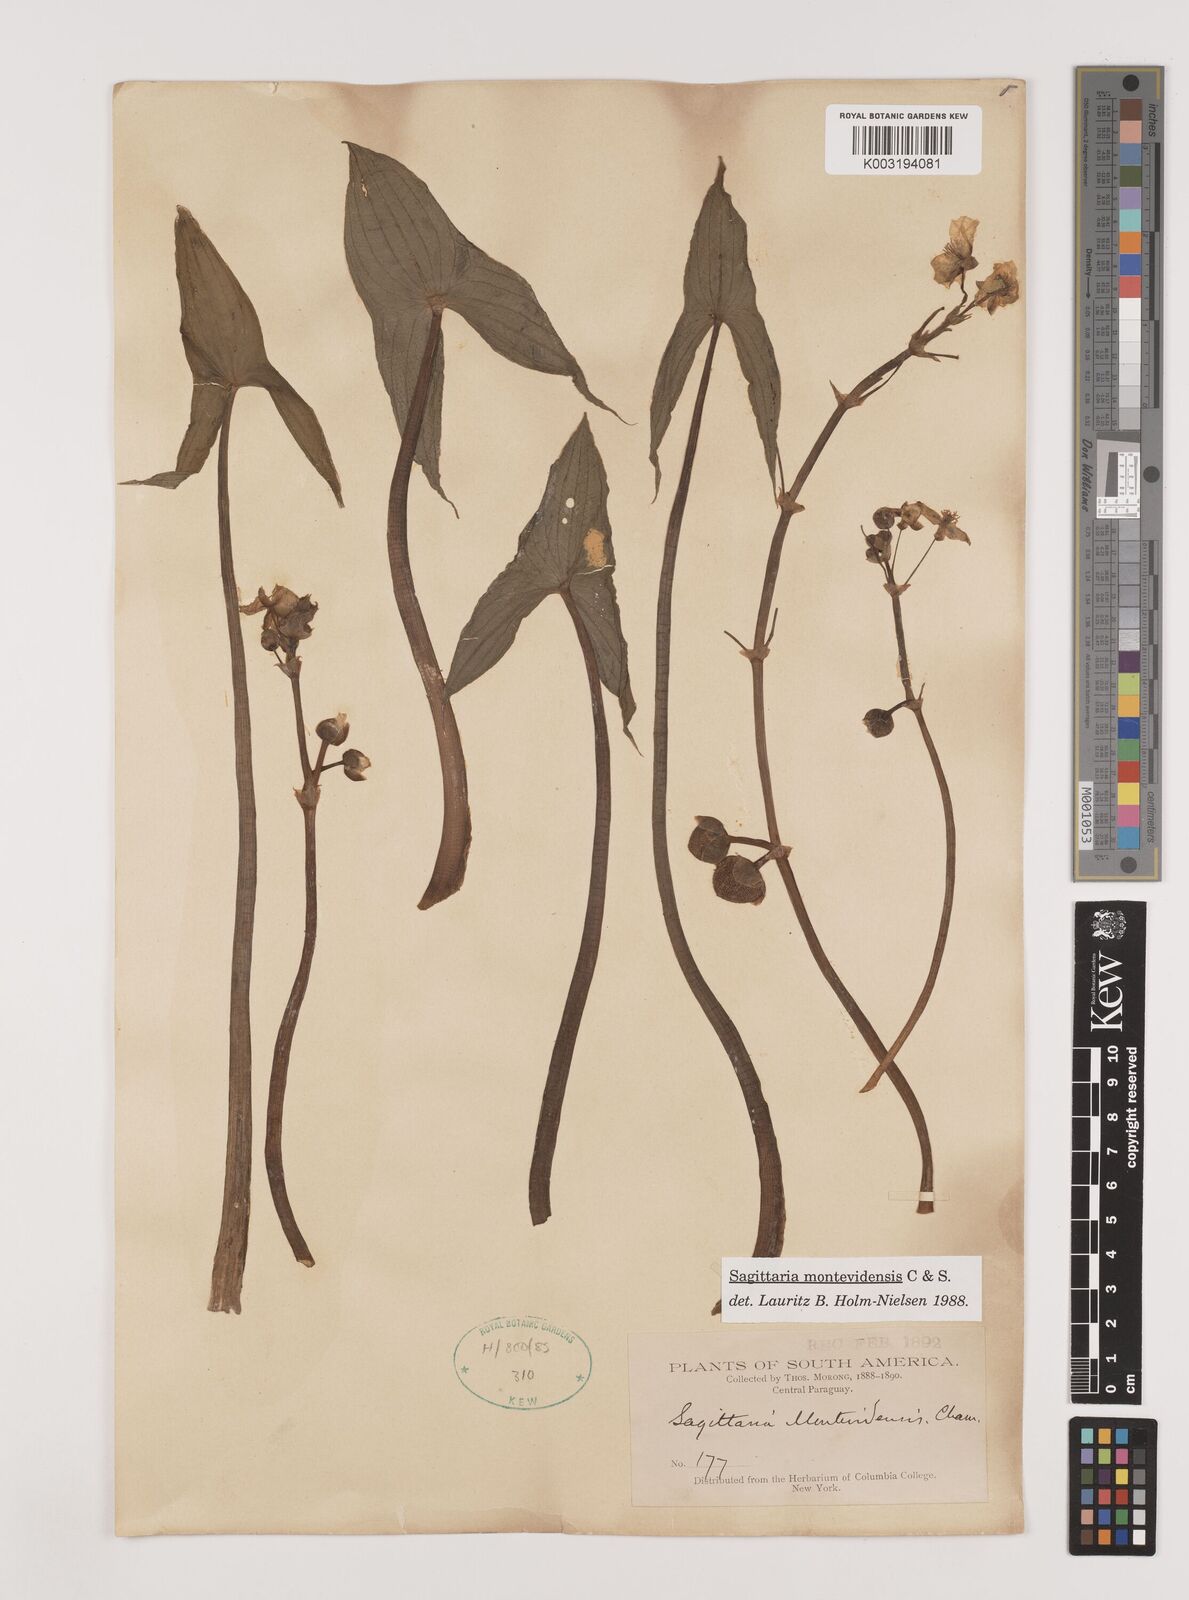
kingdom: Plantae
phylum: Tracheophyta
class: Liliopsida
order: Alismatales
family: Alismataceae
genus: Sagittaria
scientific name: Sagittaria montevidensis
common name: Giant arrowhead
